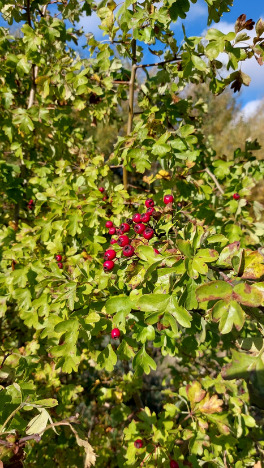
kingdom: Plantae
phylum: Tracheophyta
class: Magnoliopsida
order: Rosales
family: Rosaceae
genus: Crataegus
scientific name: Crataegus monogyna
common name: Engriflet hvidtjørn
